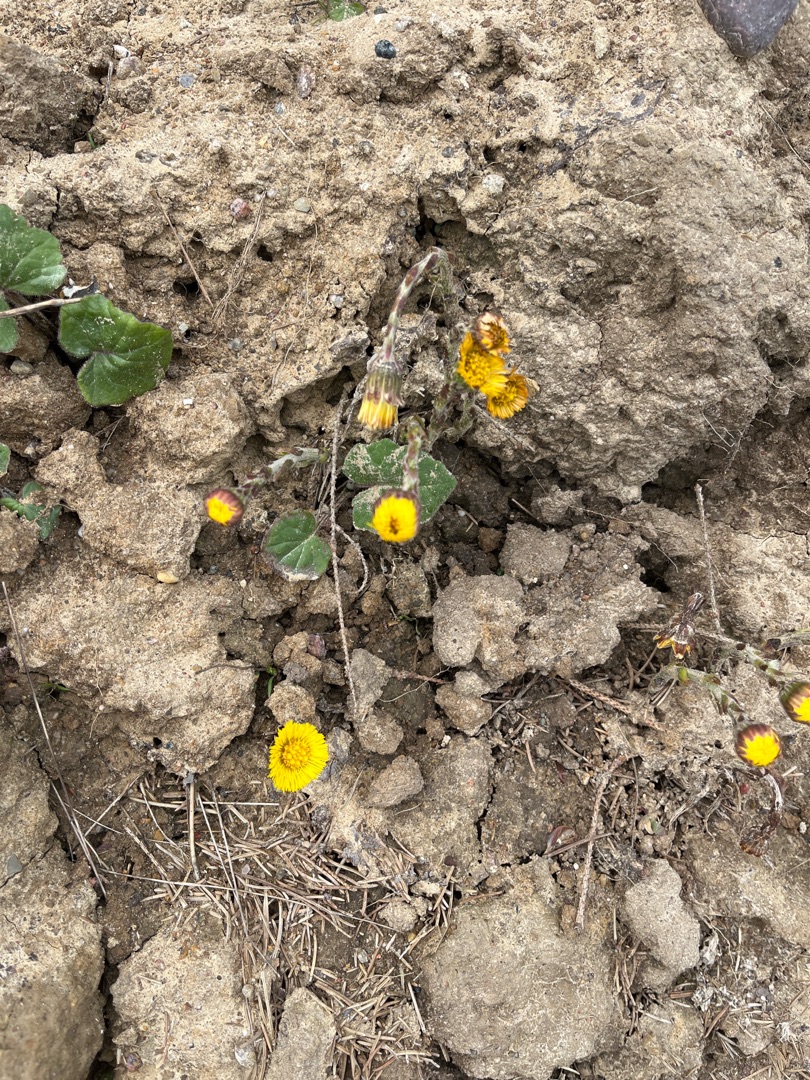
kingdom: Plantae
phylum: Tracheophyta
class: Magnoliopsida
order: Asterales
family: Asteraceae
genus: Tussilago
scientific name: Tussilago farfara
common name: Følfod
